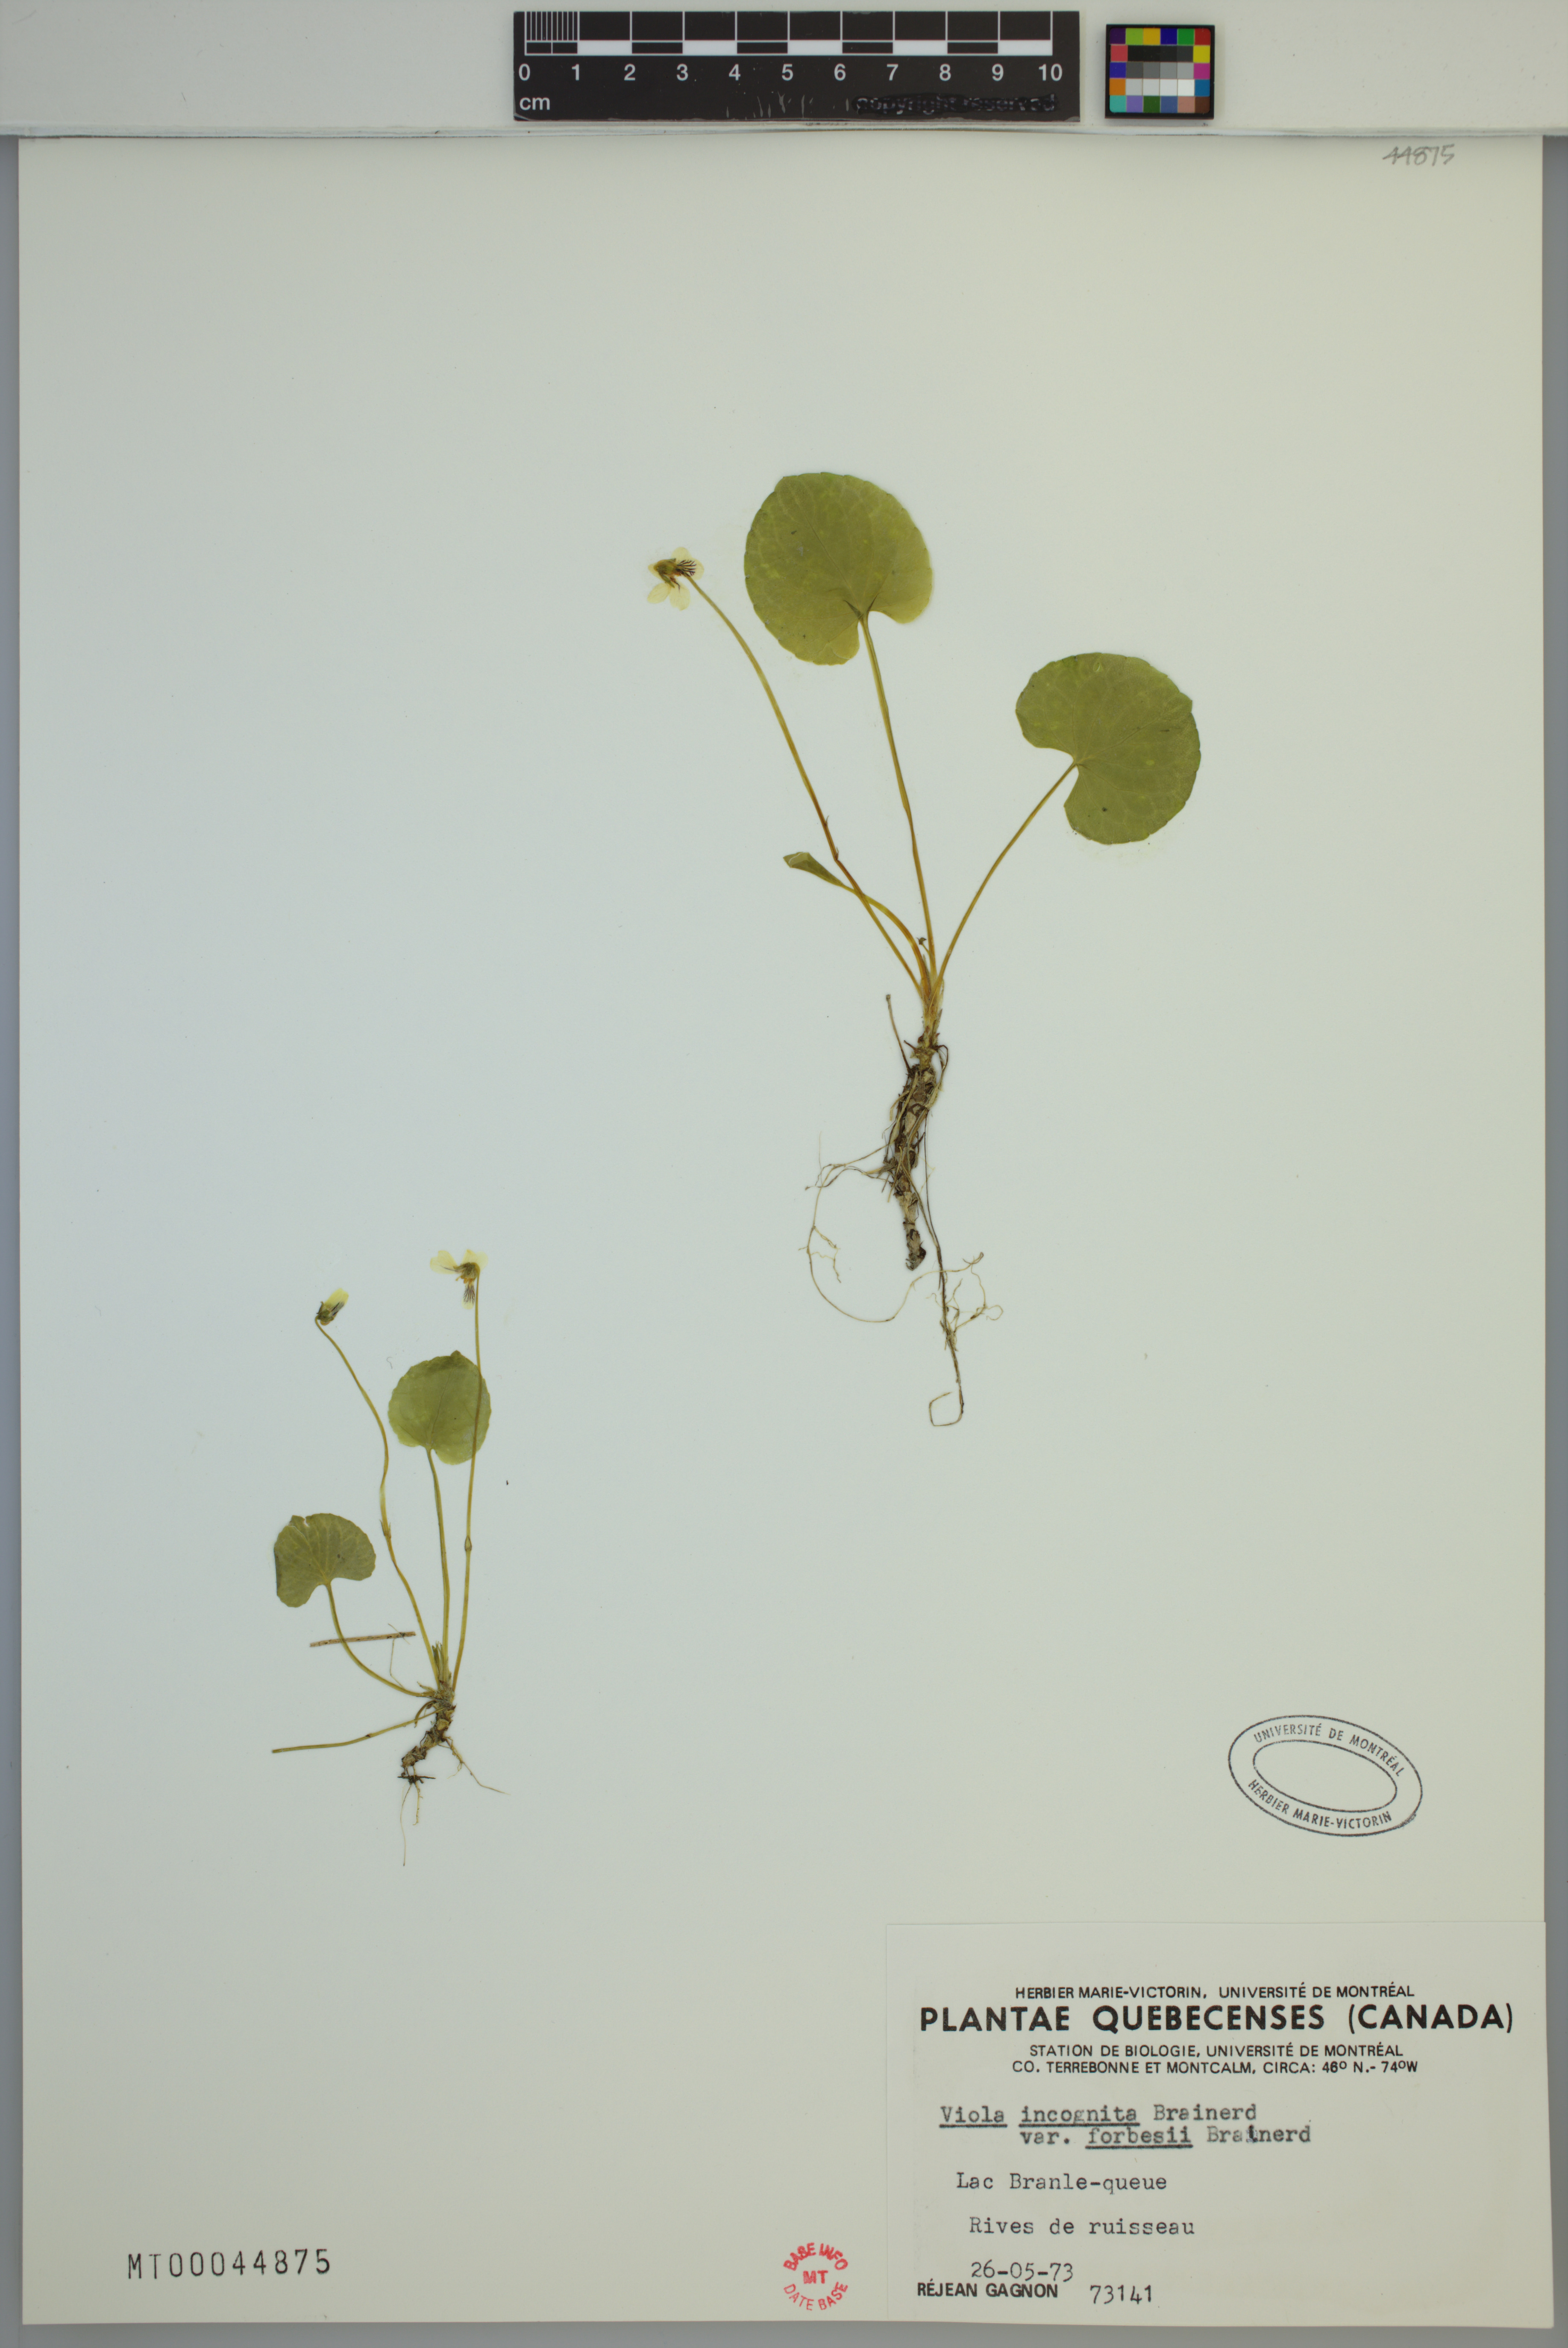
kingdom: Plantae
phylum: Tracheophyta
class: Magnoliopsida
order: Malpighiales
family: Violaceae
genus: Viola
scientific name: Viola blanda
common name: Sweet white violet
